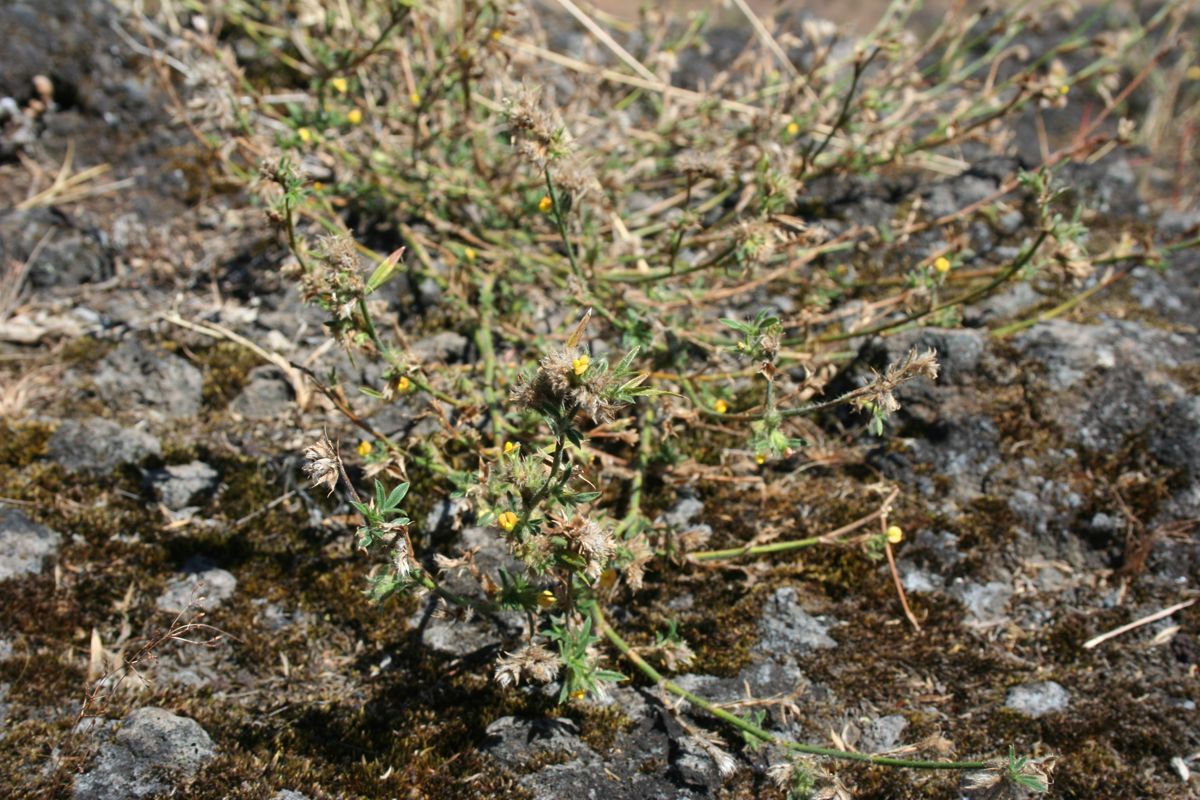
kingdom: Plantae
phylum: Tracheophyta
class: Magnoliopsida
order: Fabales
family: Fabaceae
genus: Stylosanthes
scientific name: Stylosanthes guianensis
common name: Pencil flower
